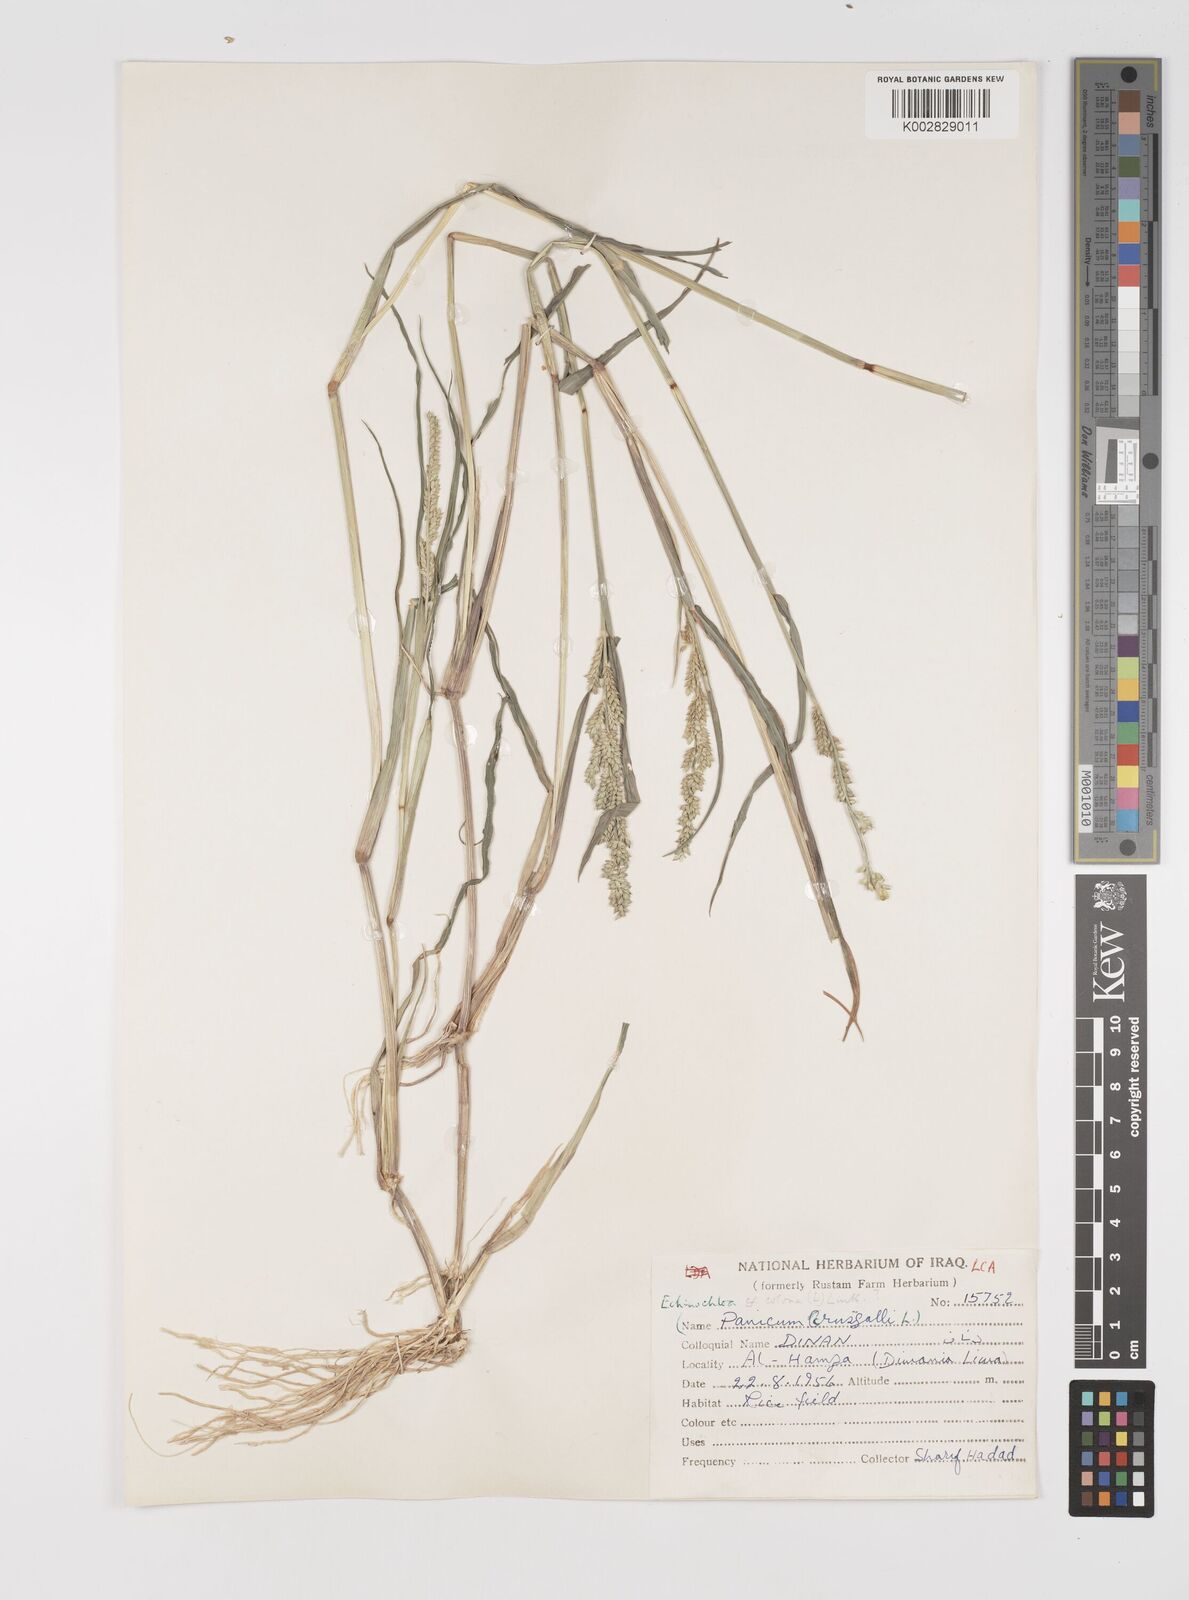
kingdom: Plantae
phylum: Tracheophyta
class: Liliopsida
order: Poales
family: Poaceae
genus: Echinochloa
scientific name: Echinochloa colonum
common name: Jungle rice
